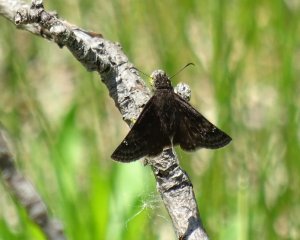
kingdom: Animalia
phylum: Arthropoda
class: Insecta
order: Lepidoptera
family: Hesperiidae
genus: Gesta
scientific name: Gesta
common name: Wild Indigo Duskywing
